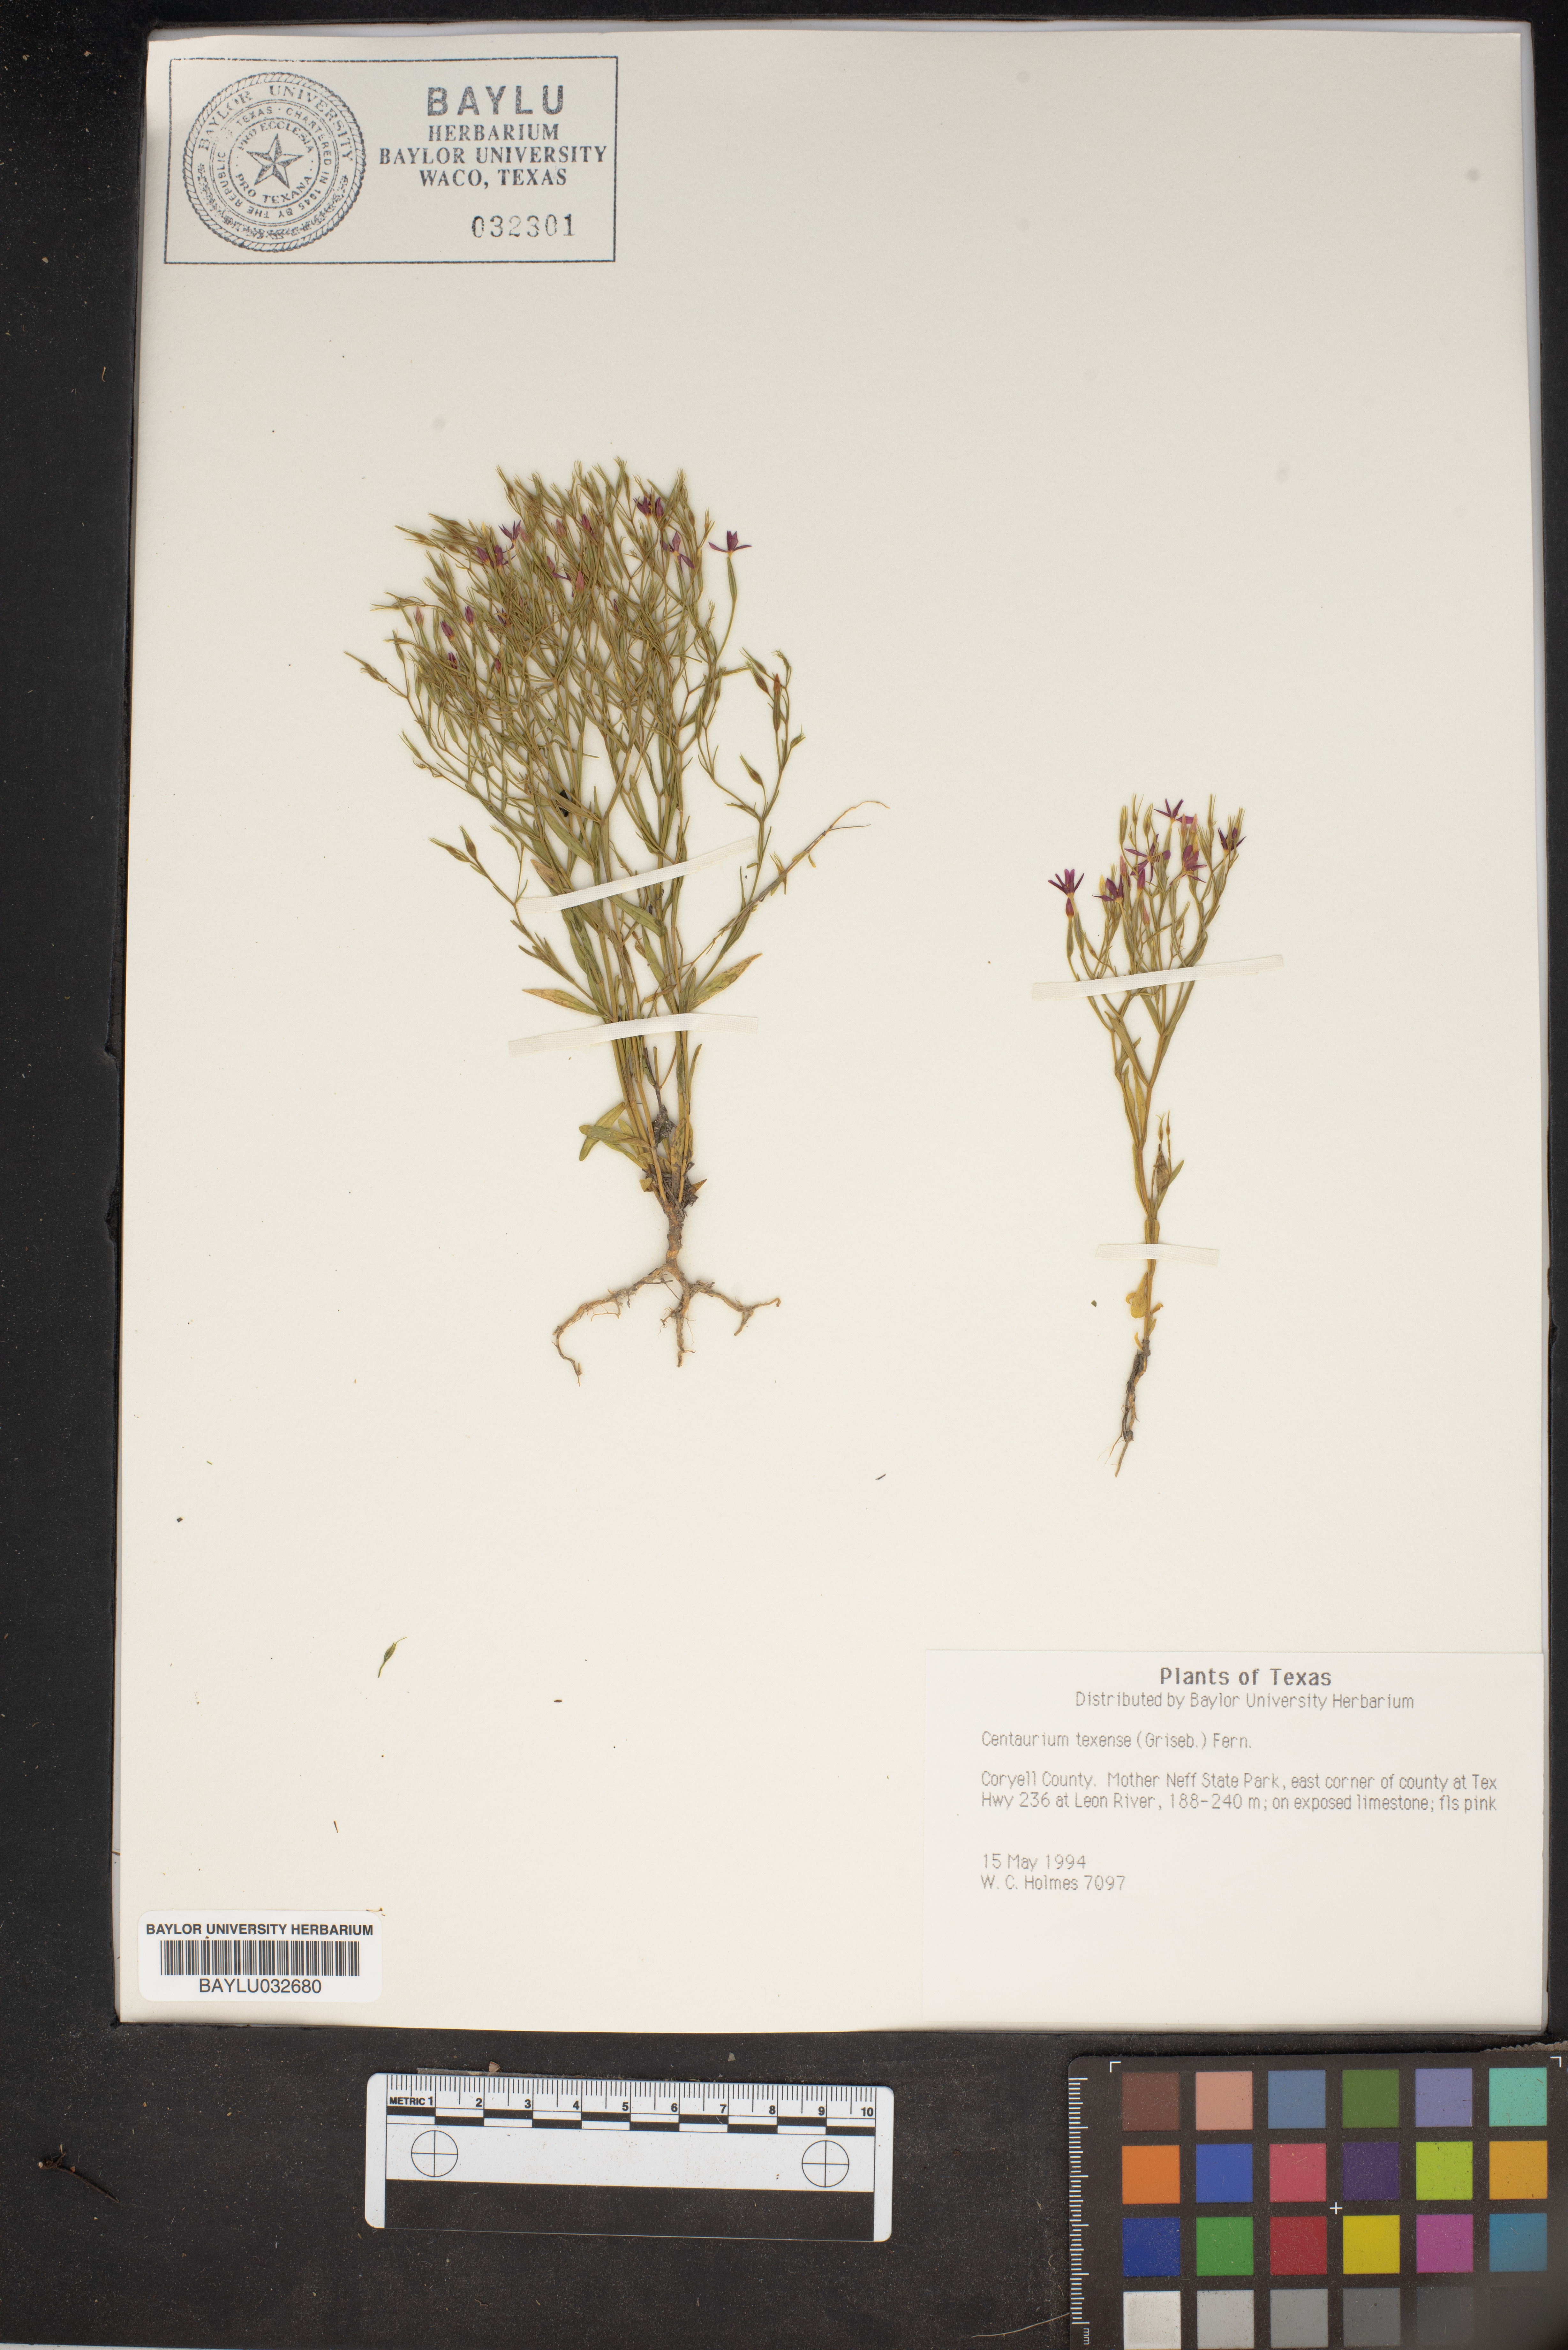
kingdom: Plantae
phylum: Tracheophyta
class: Magnoliopsida
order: Gentianales
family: Gentianaceae
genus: Zeltnera
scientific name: Zeltnera texensis
